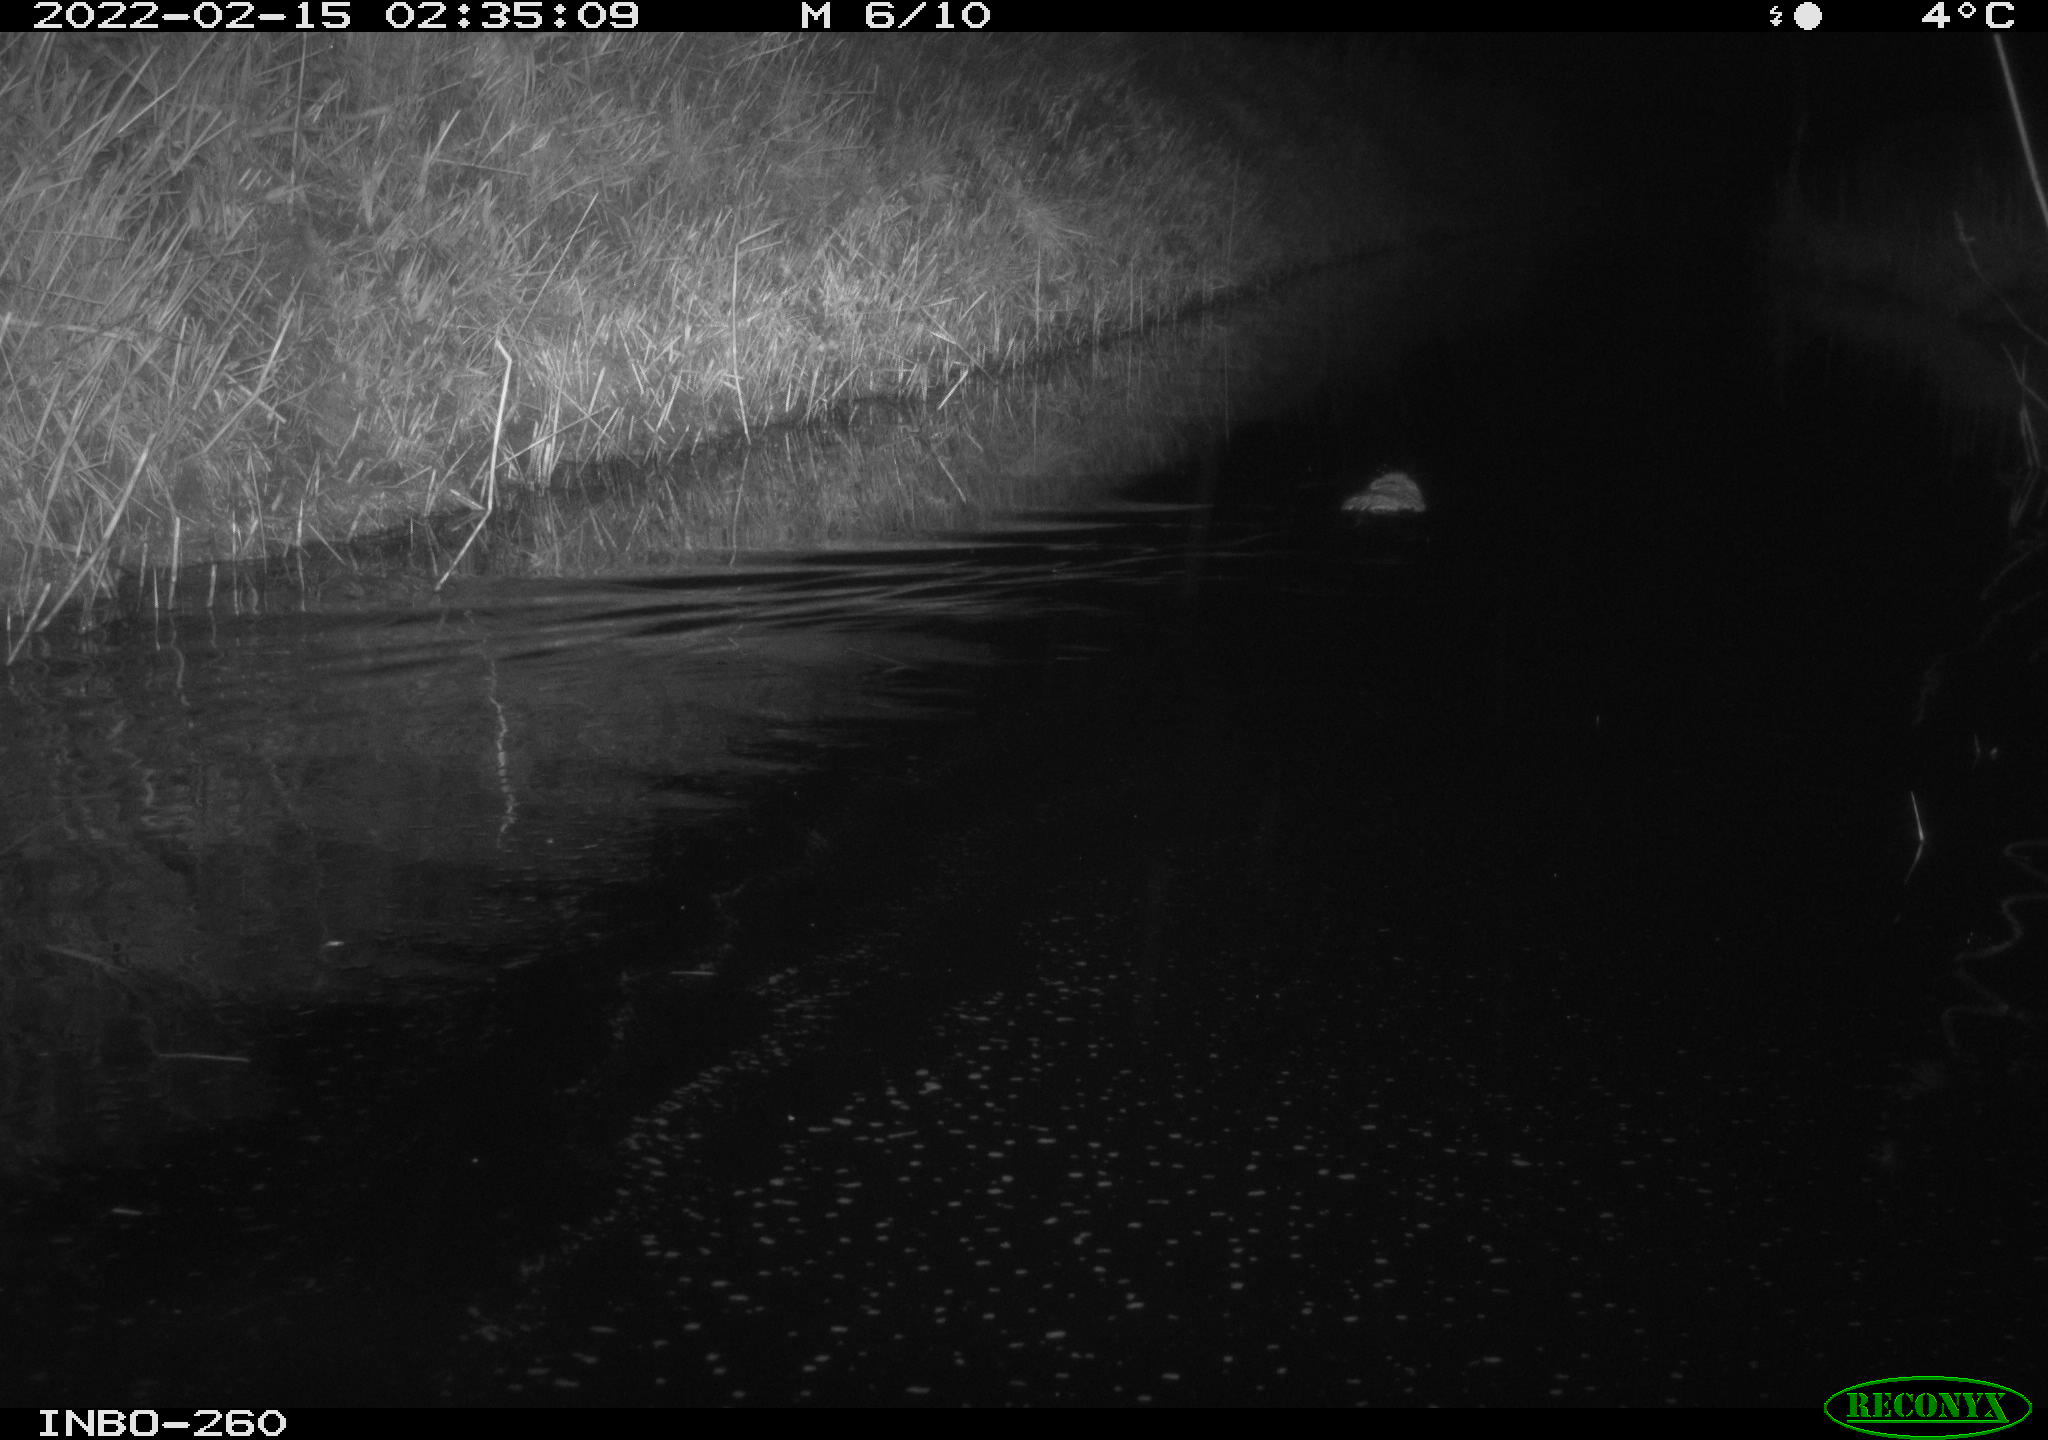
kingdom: Animalia
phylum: Chordata
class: Mammalia
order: Rodentia
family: Cricetidae
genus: Ondatra
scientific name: Ondatra zibethicus
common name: Muskrat
